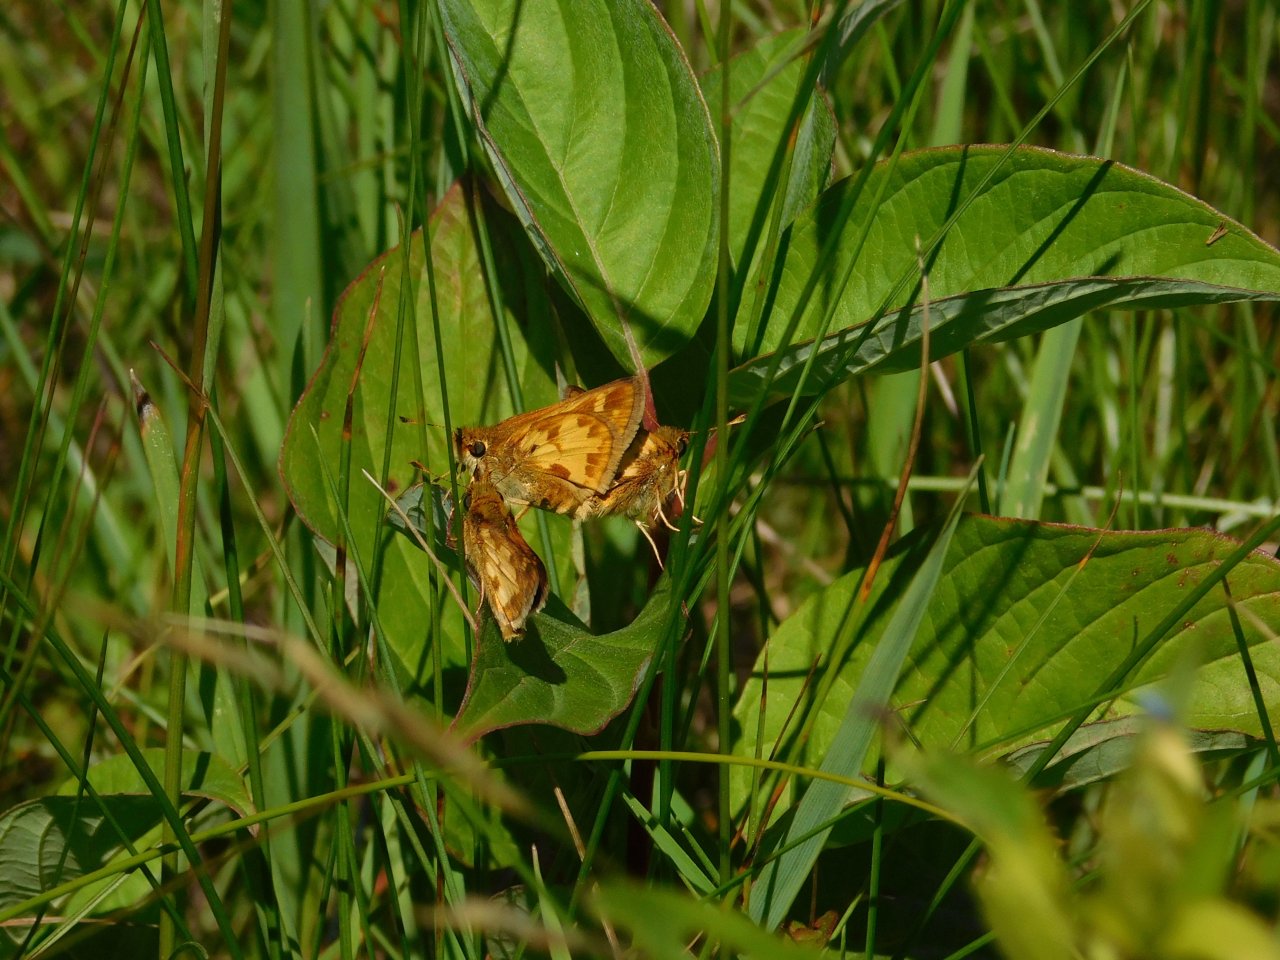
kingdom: Animalia
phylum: Arthropoda
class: Insecta
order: Lepidoptera
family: Hesperiidae
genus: Polites
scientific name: Polites coras
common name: Peck's Skipper
